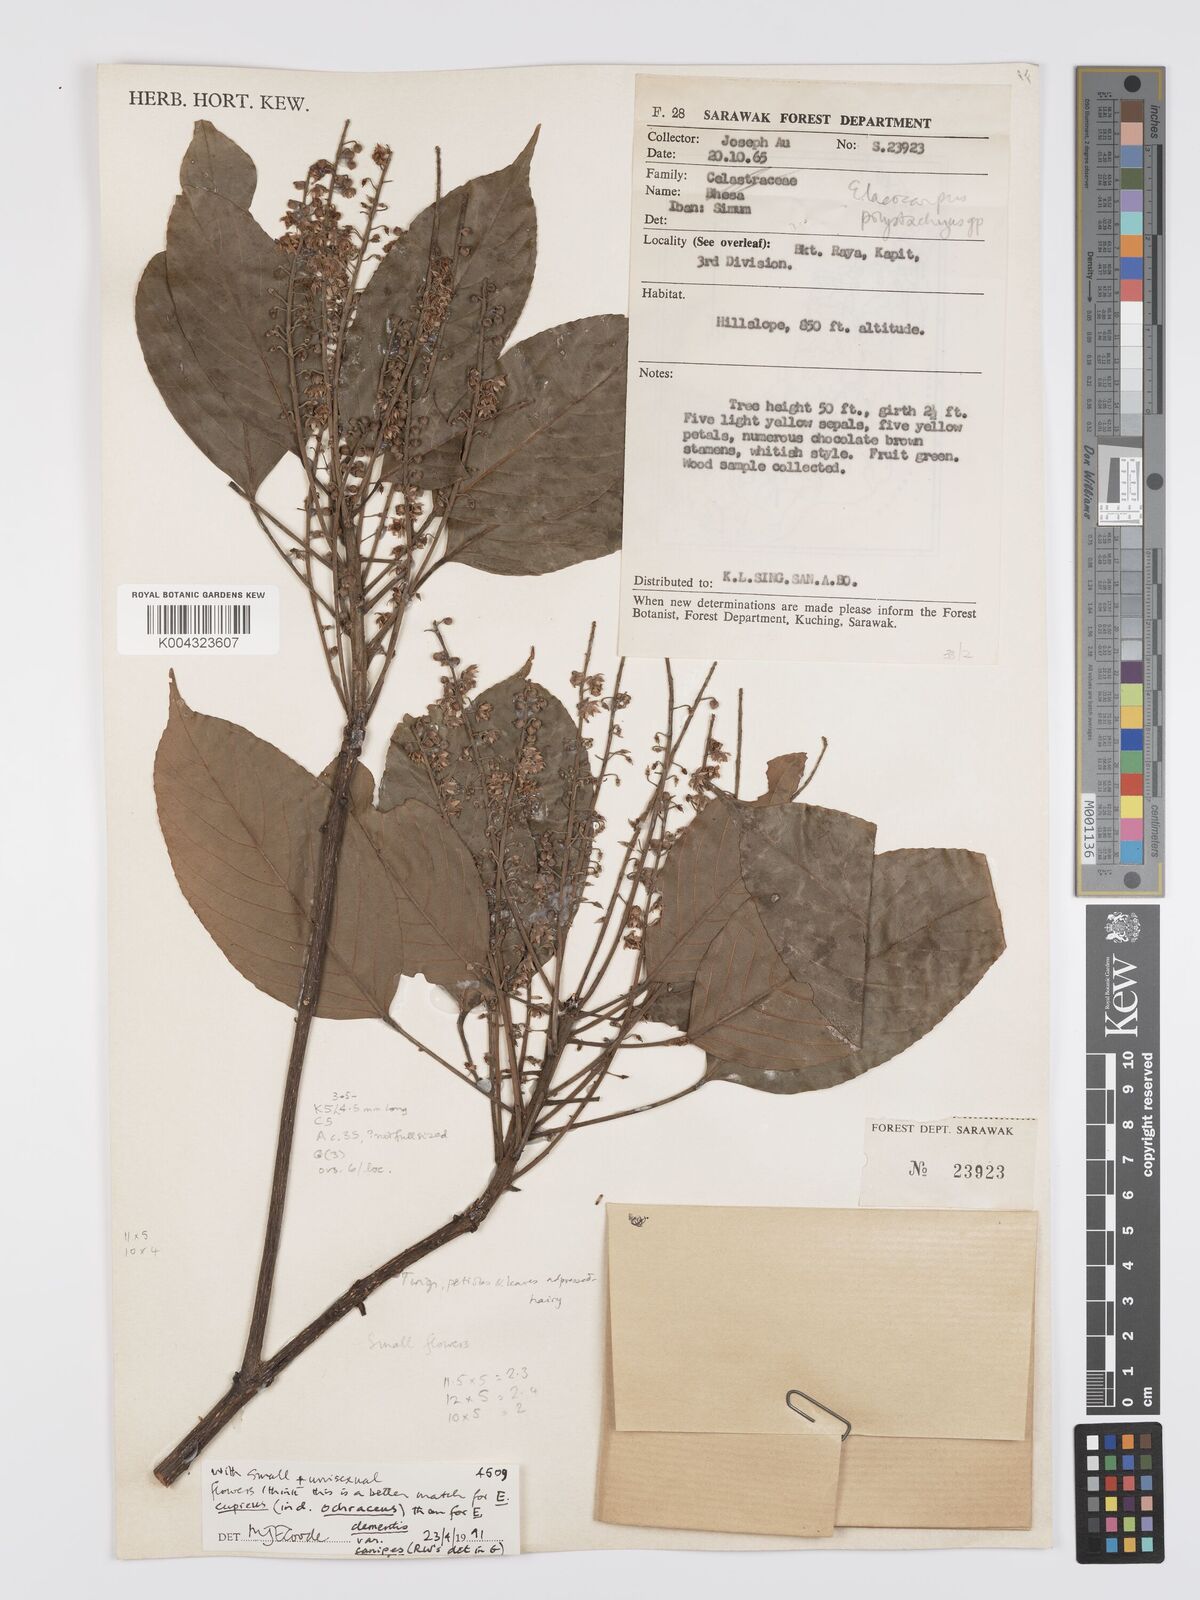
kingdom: Plantae
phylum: Tracheophyta
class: Magnoliopsida
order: Oxalidales
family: Elaeocarpaceae
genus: Elaeocarpus
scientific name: Elaeocarpus cupreus
